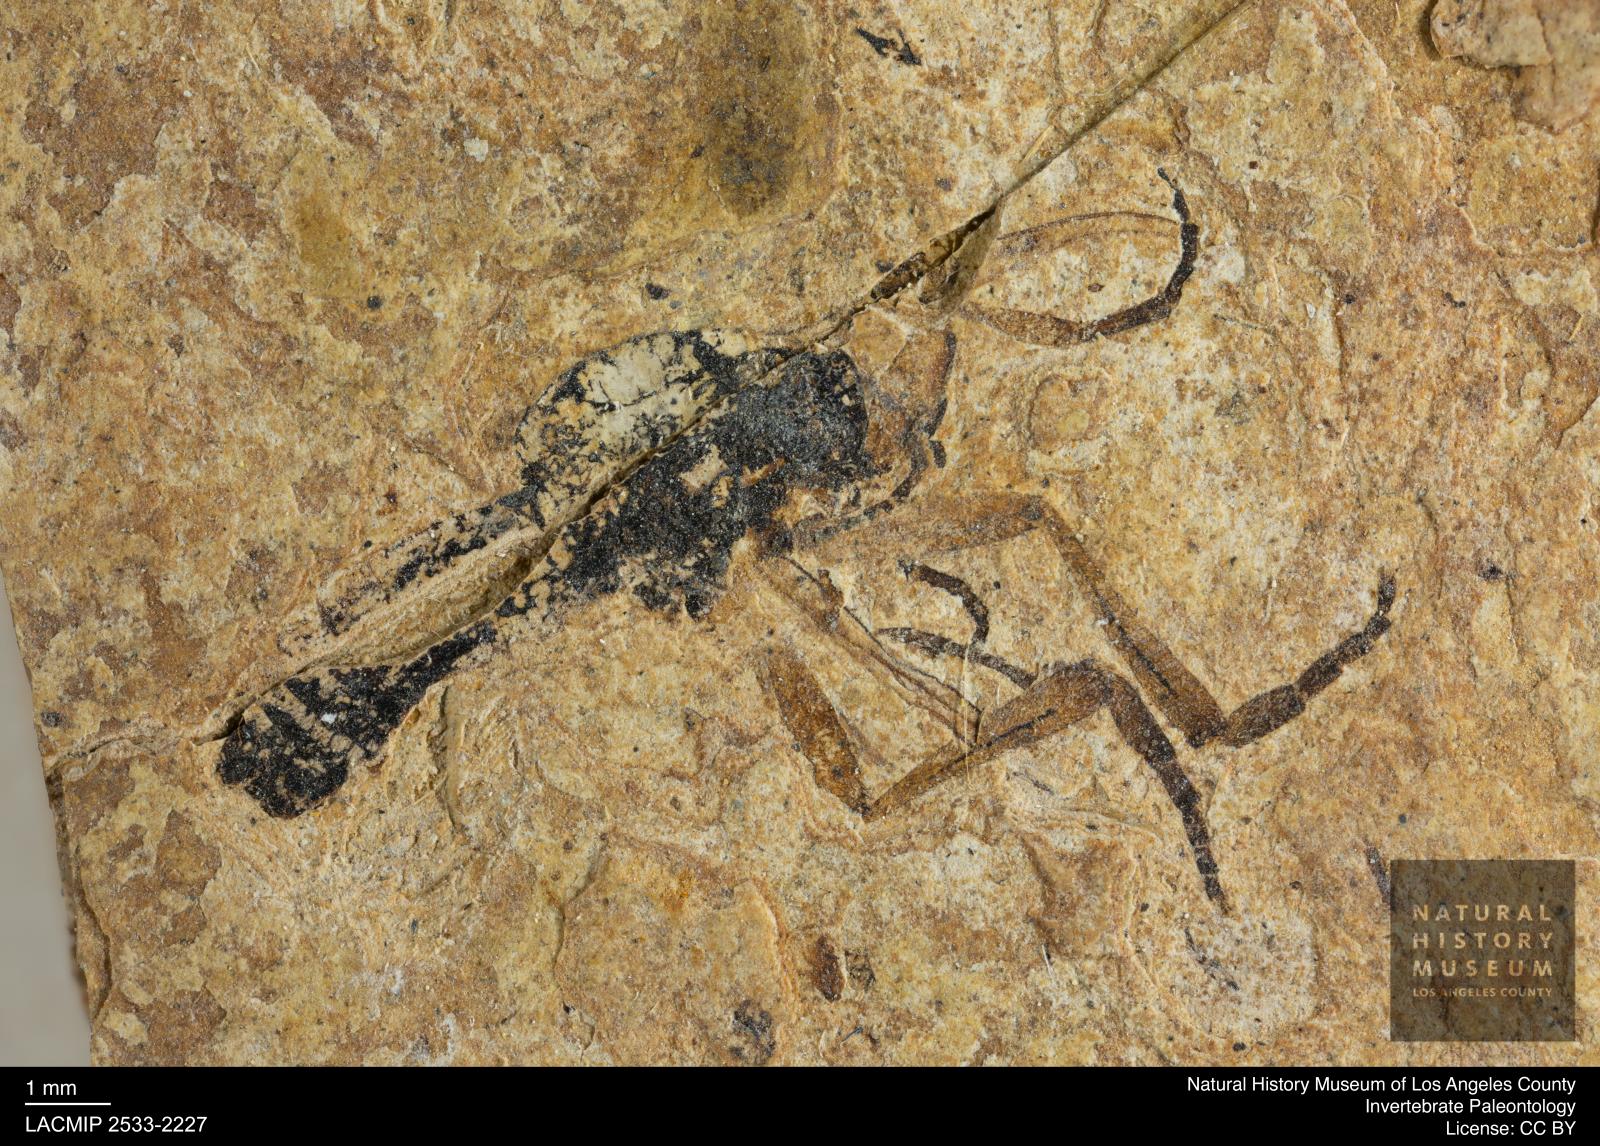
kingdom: Animalia
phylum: Arthropoda
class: Insecta
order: Diptera
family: Bibionidae
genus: Bibio
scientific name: Bibio
